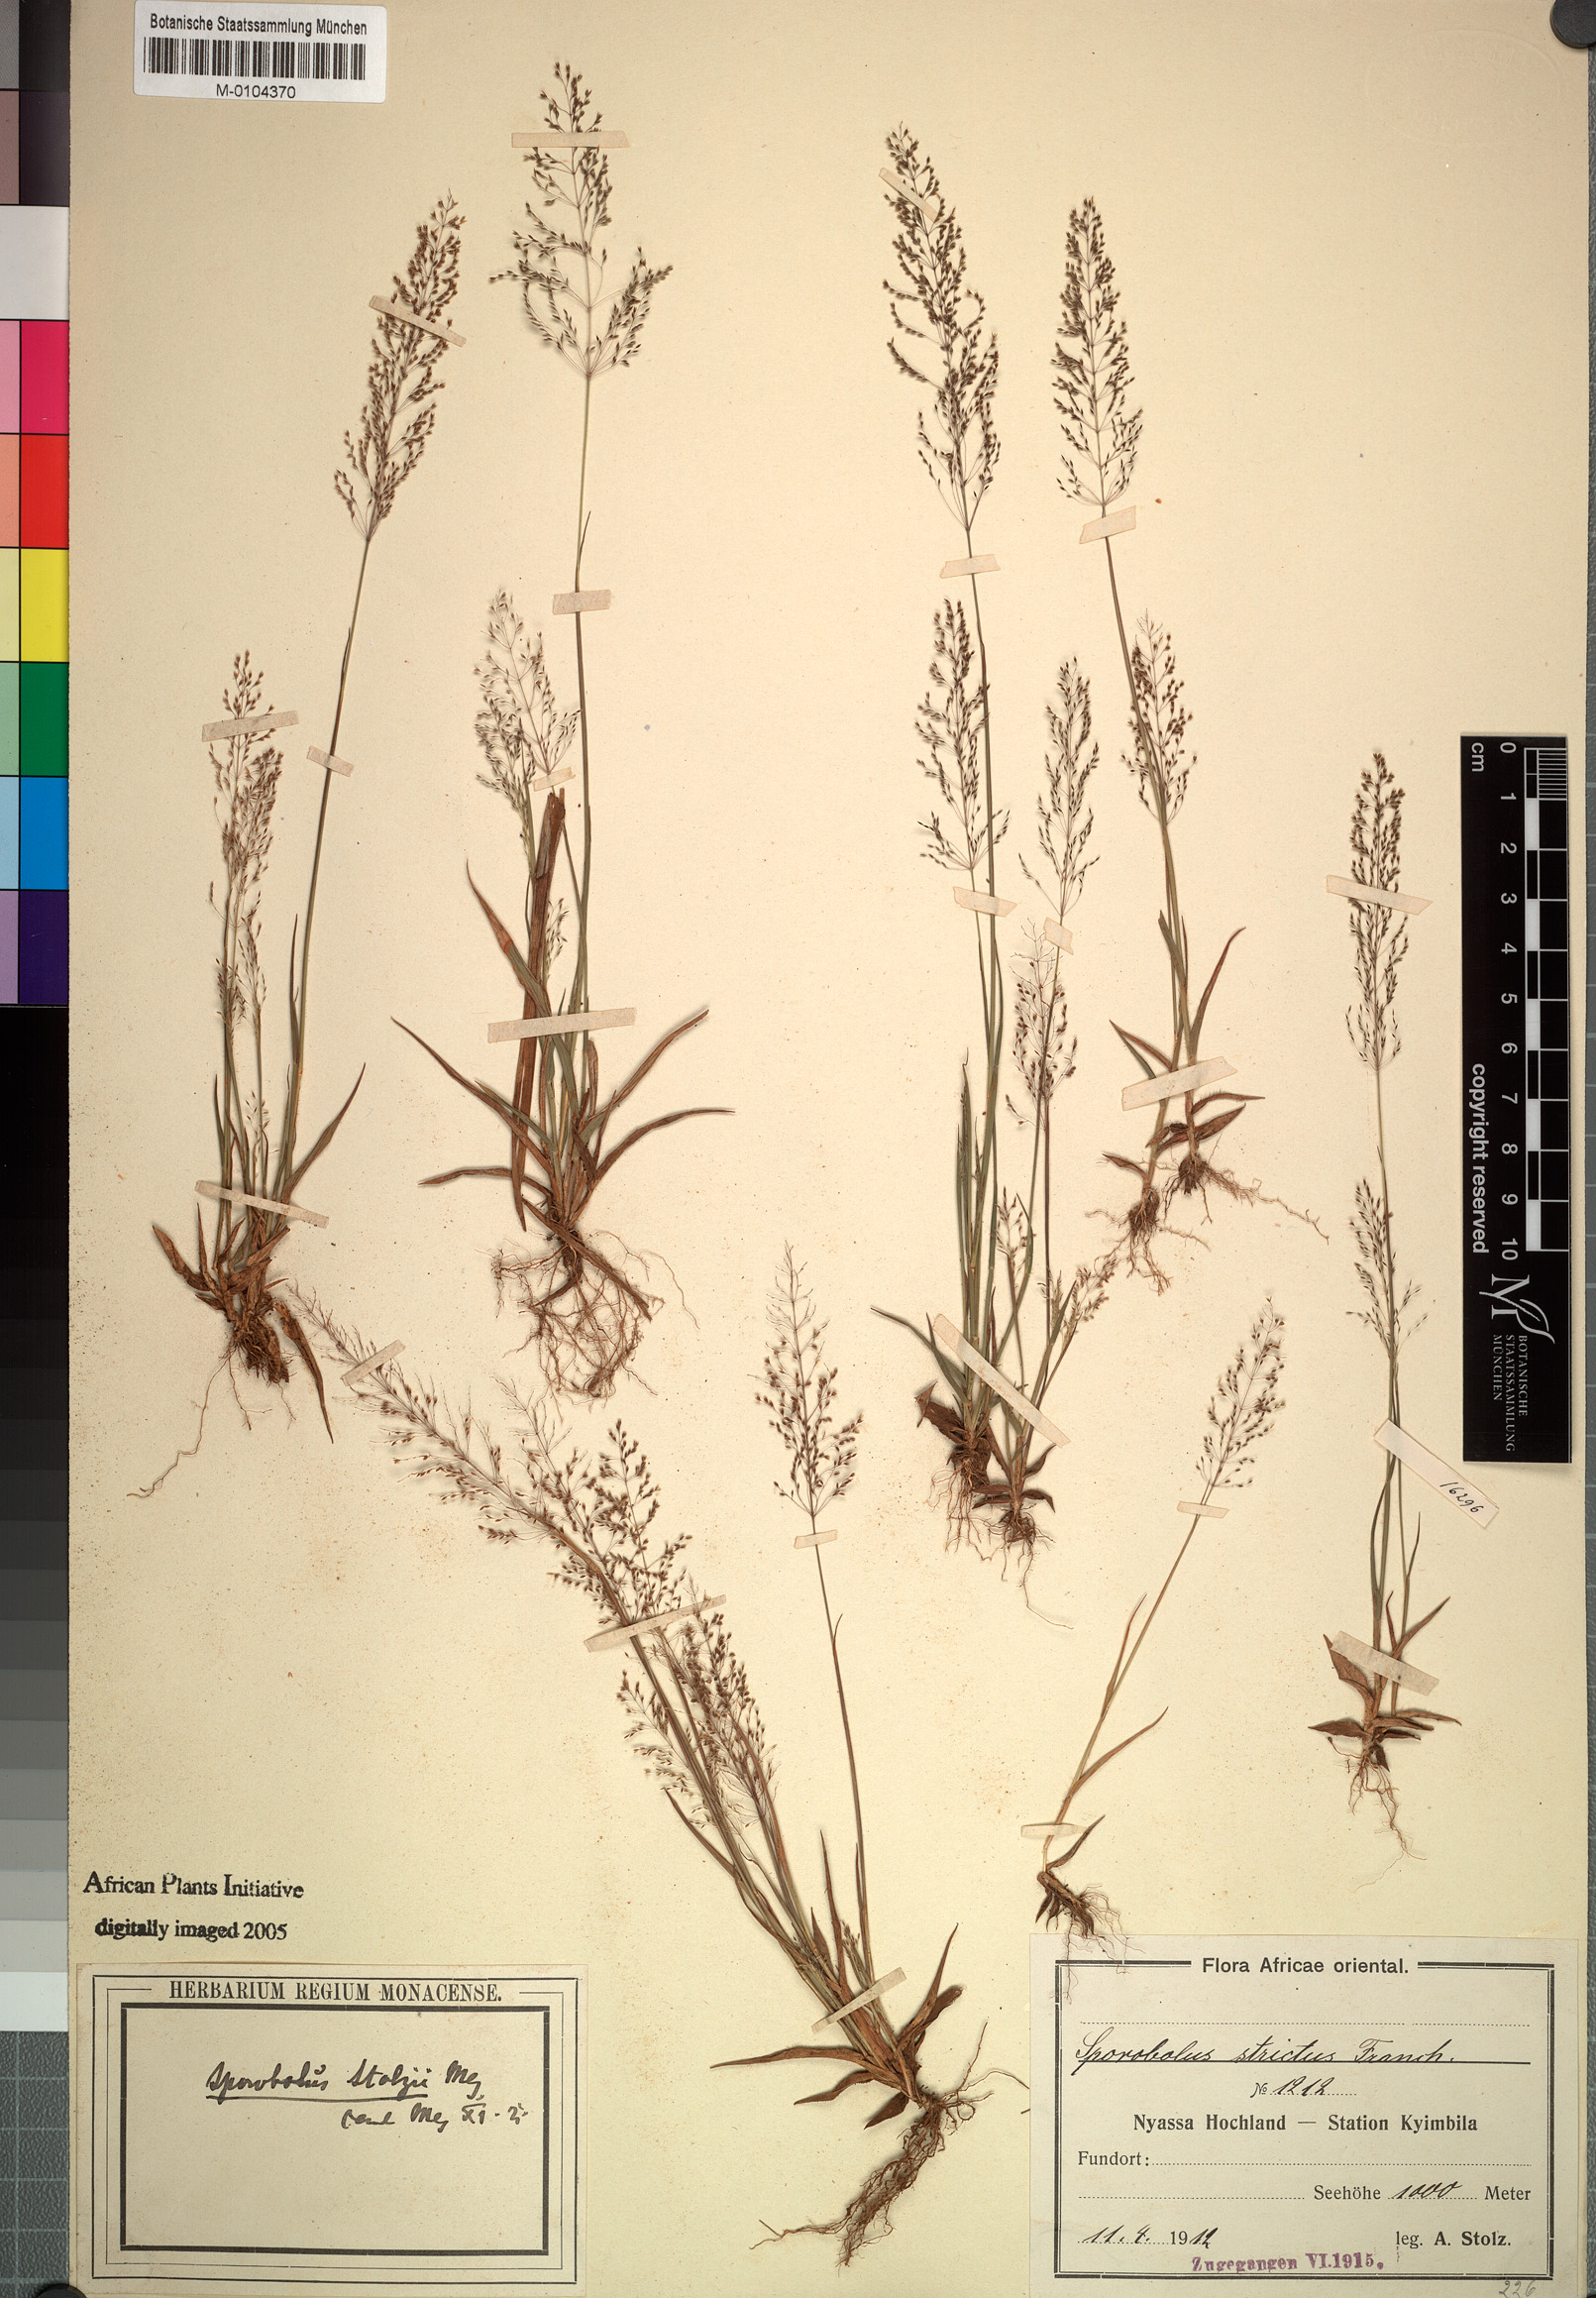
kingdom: Plantae
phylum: Tracheophyta
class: Liliopsida
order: Poales
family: Poaceae
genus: Sporobolus
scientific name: Sporobolus stolzii
